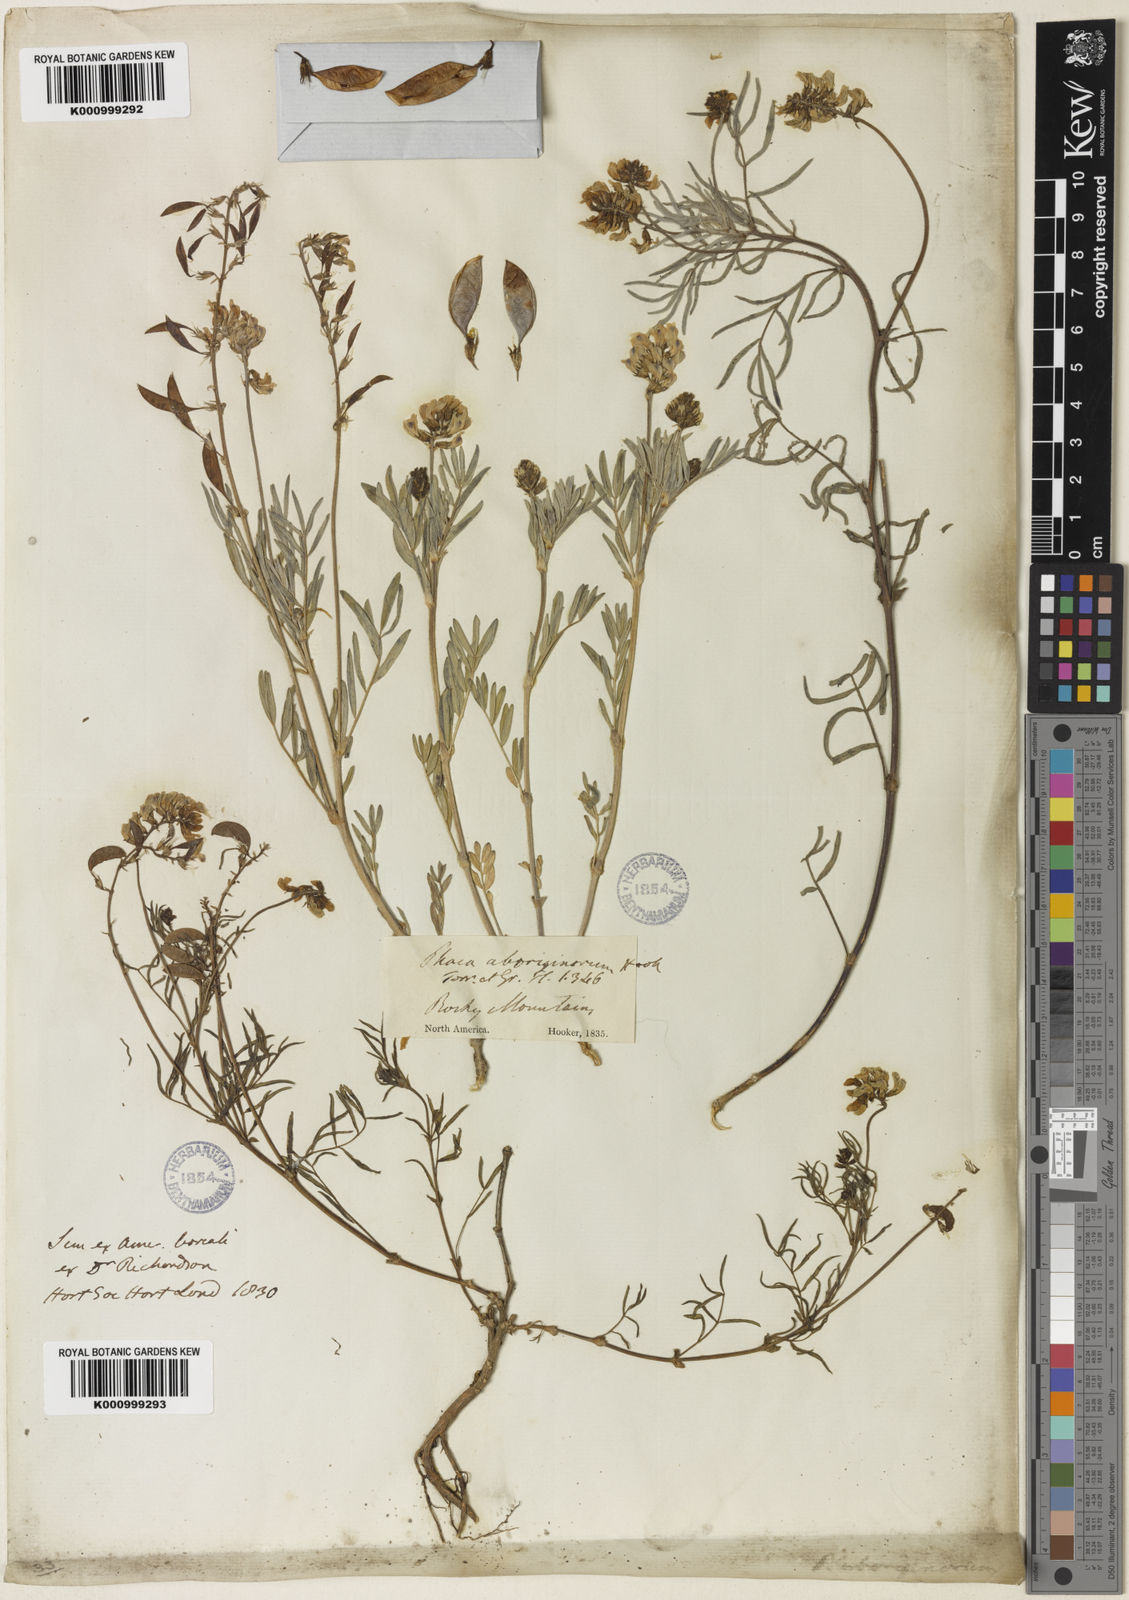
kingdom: Plantae
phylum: Tracheophyta
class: Magnoliopsida
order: Fabales
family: Fabaceae
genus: Astragalus
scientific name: Astragalus aboriginorum
